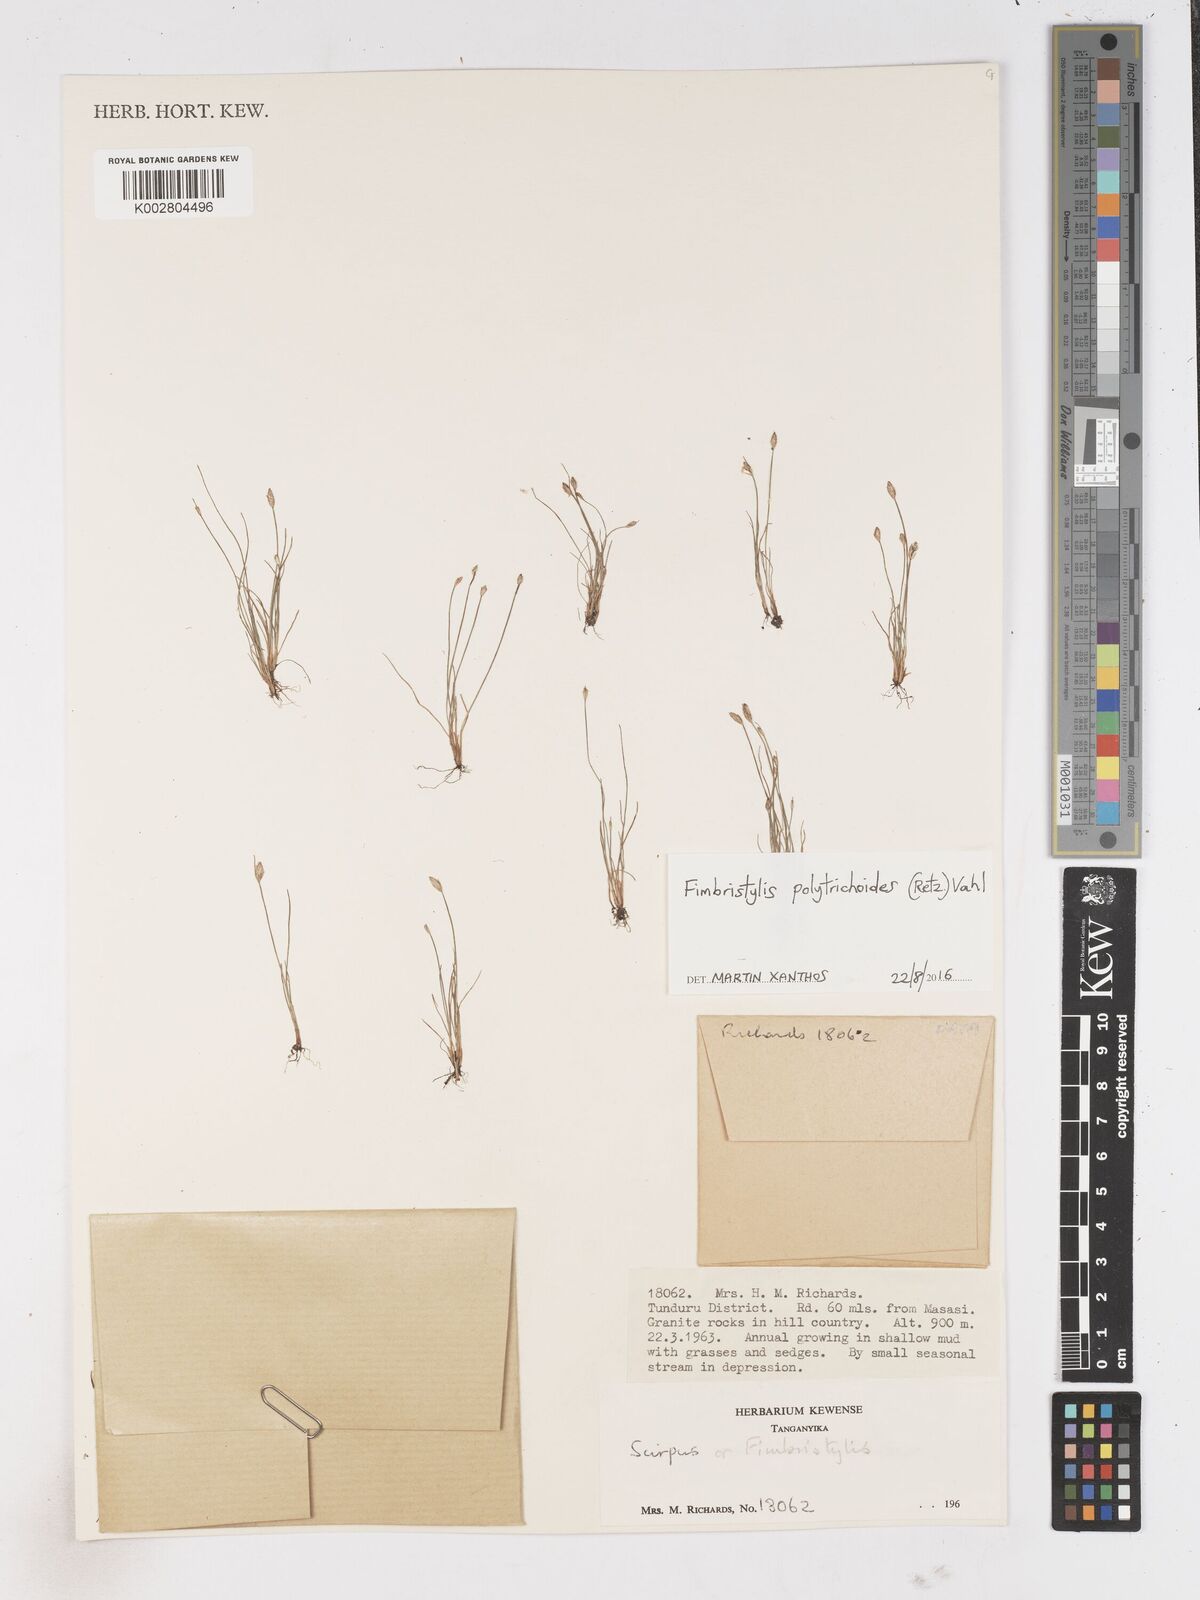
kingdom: Plantae
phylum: Tracheophyta
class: Liliopsida
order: Poales
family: Cyperaceae
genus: Fimbristylis
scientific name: Fimbristylis polytrichoides
